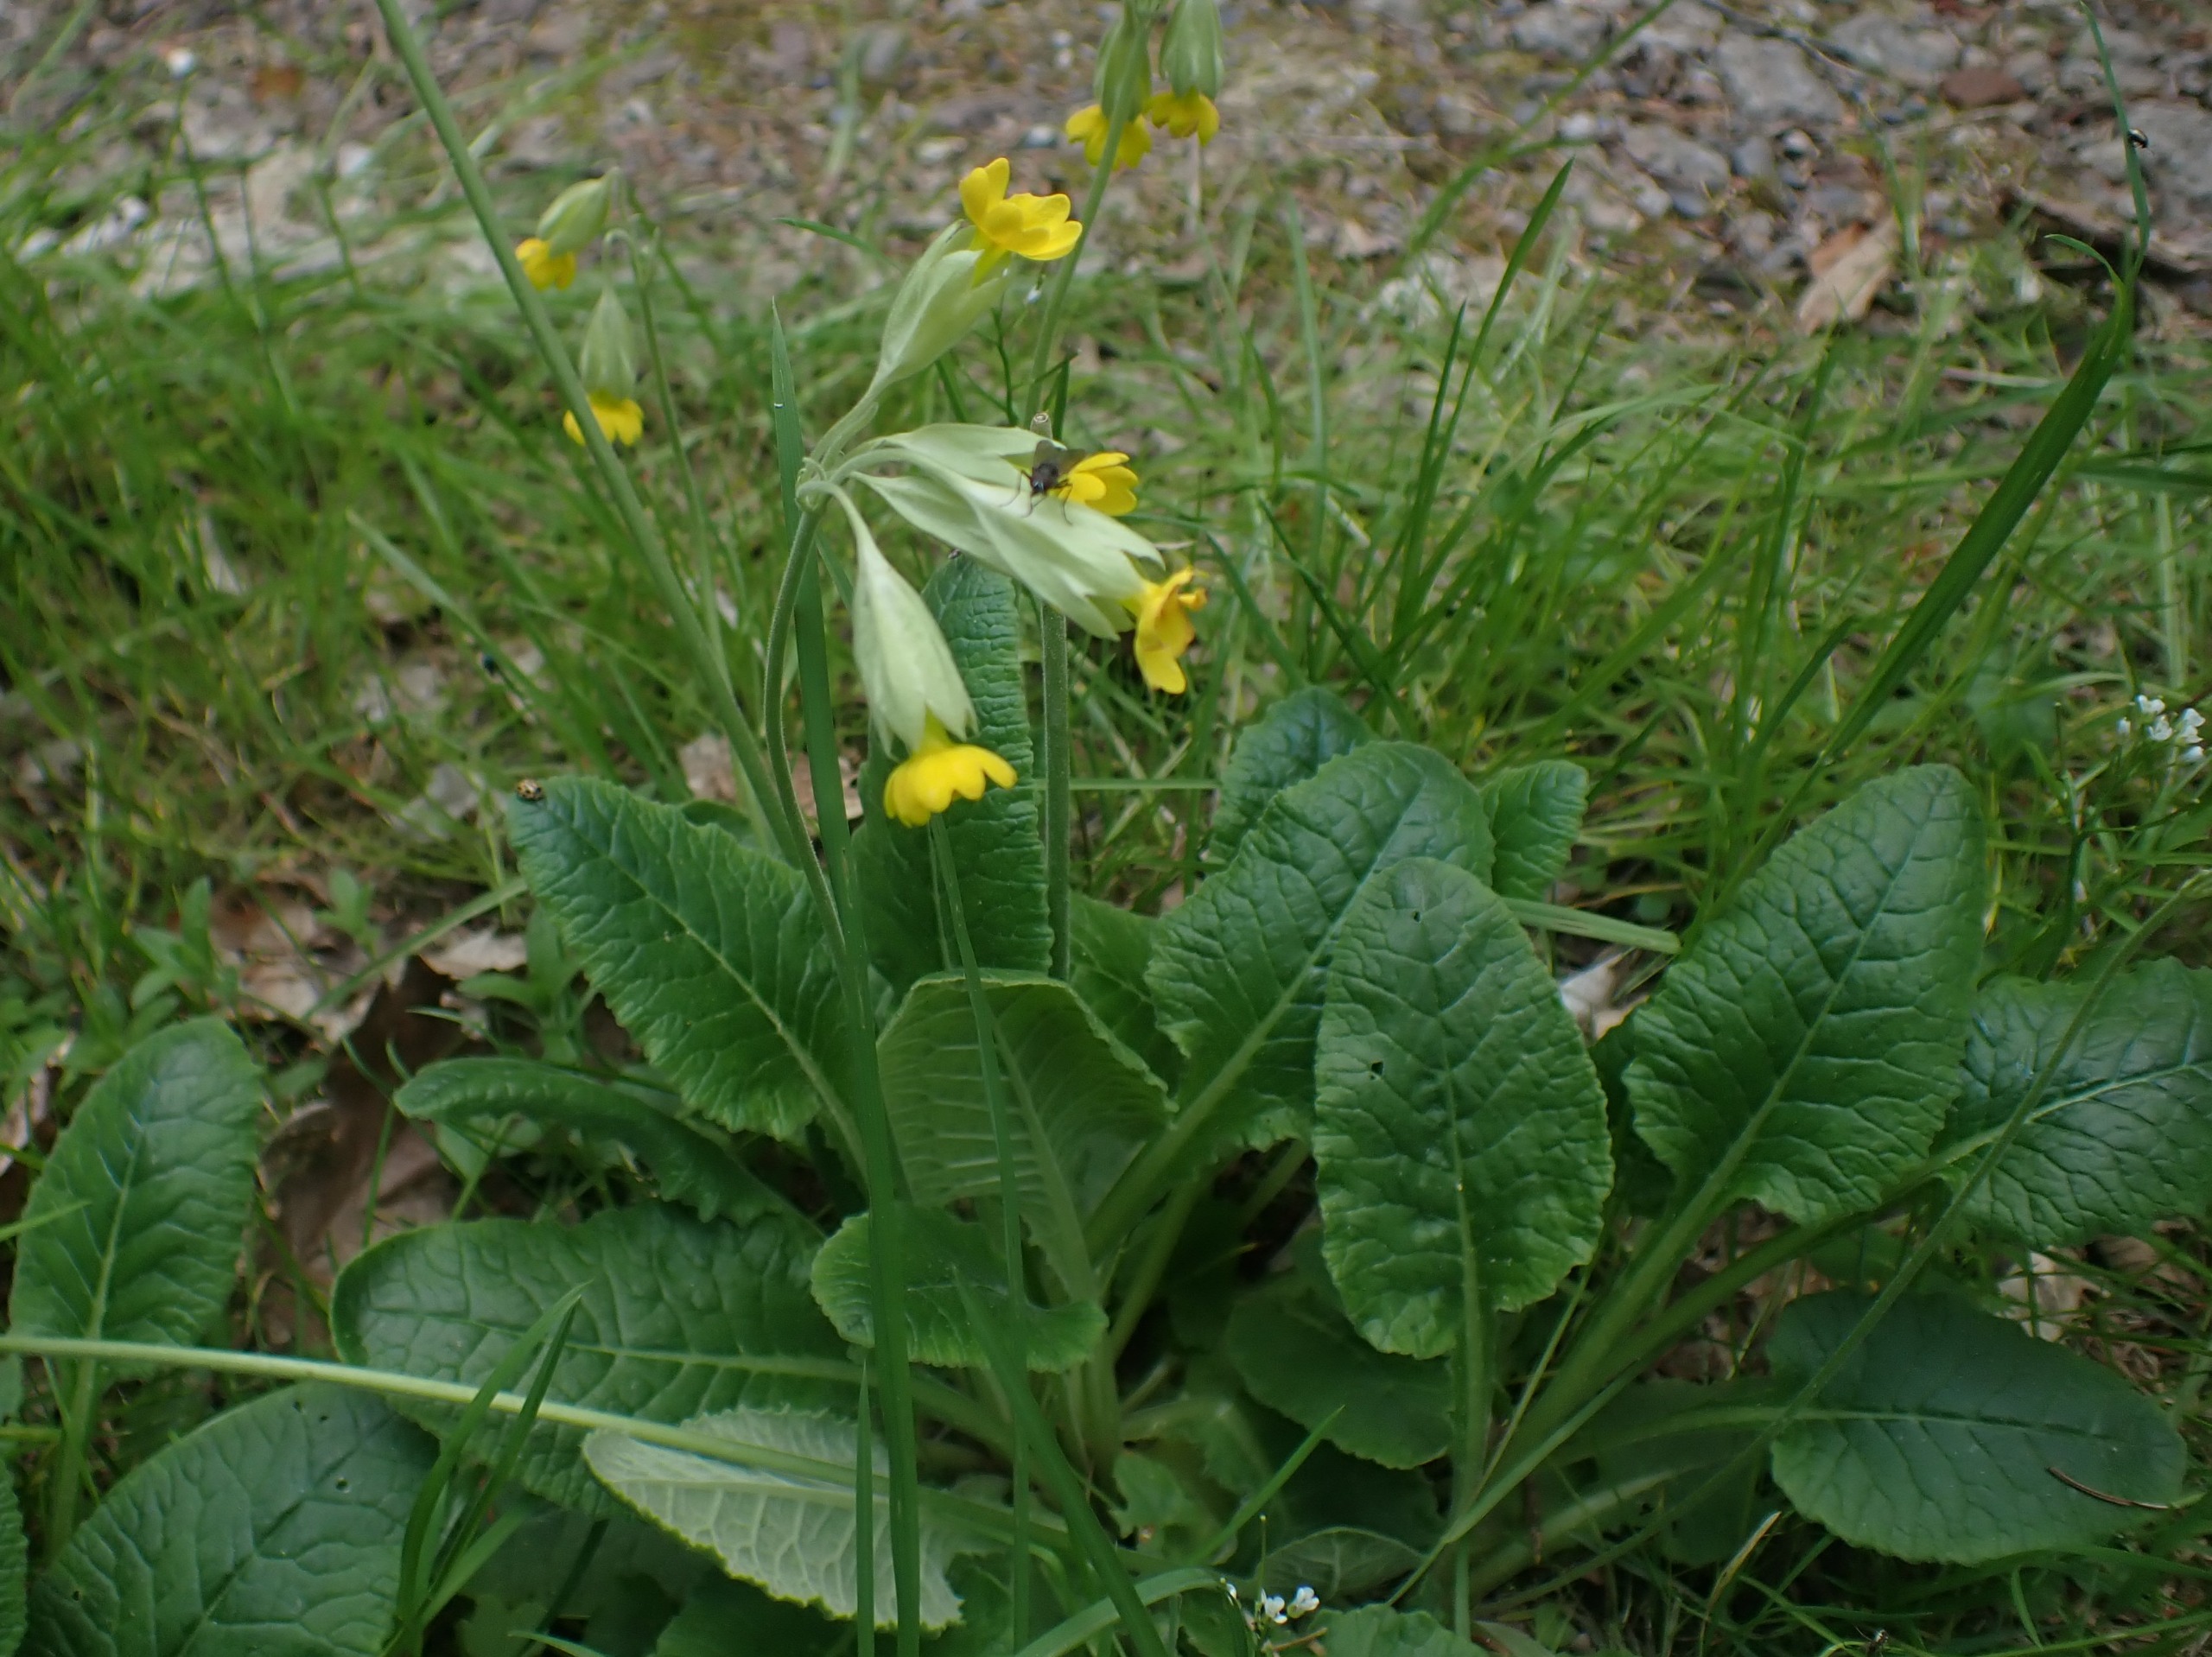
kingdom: Plantae
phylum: Tracheophyta
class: Magnoliopsida
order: Ericales
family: Primulaceae
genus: Primula
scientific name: Primula veris
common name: Hulkravet kodriver
